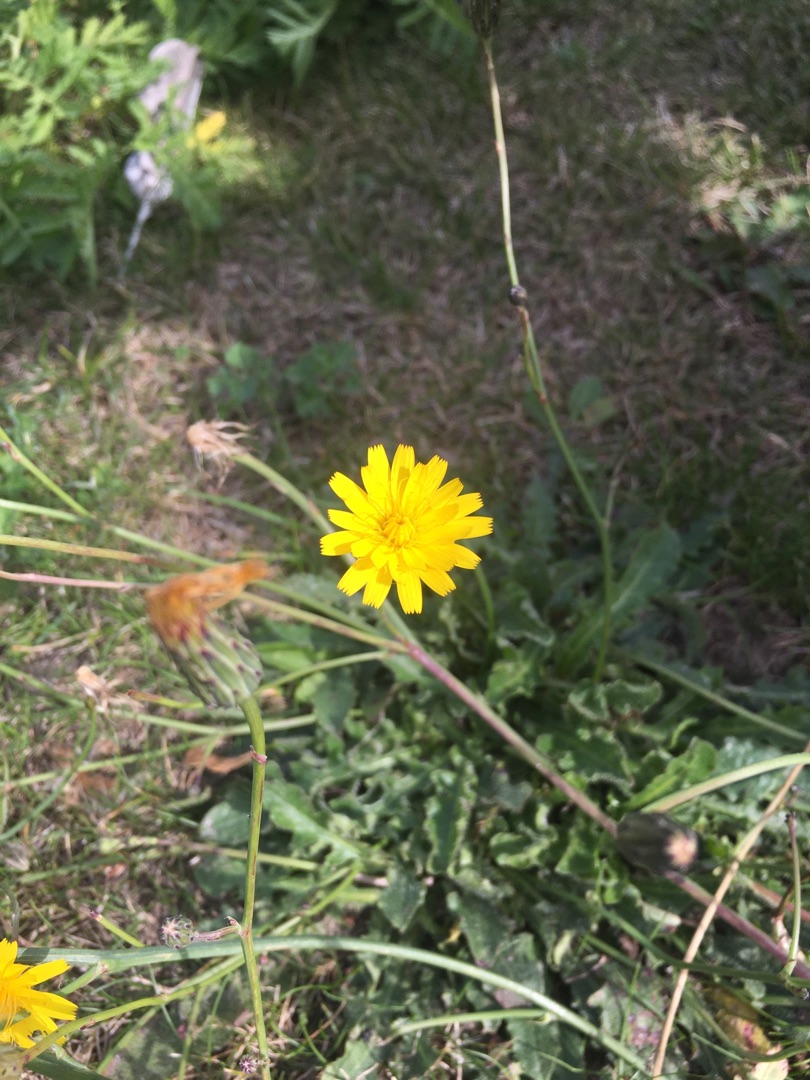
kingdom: Plantae
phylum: Tracheophyta
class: Magnoliopsida
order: Asterales
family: Asteraceae
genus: Hypochaeris
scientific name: Hypochaeris radicata
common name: Almindelig kongepen
